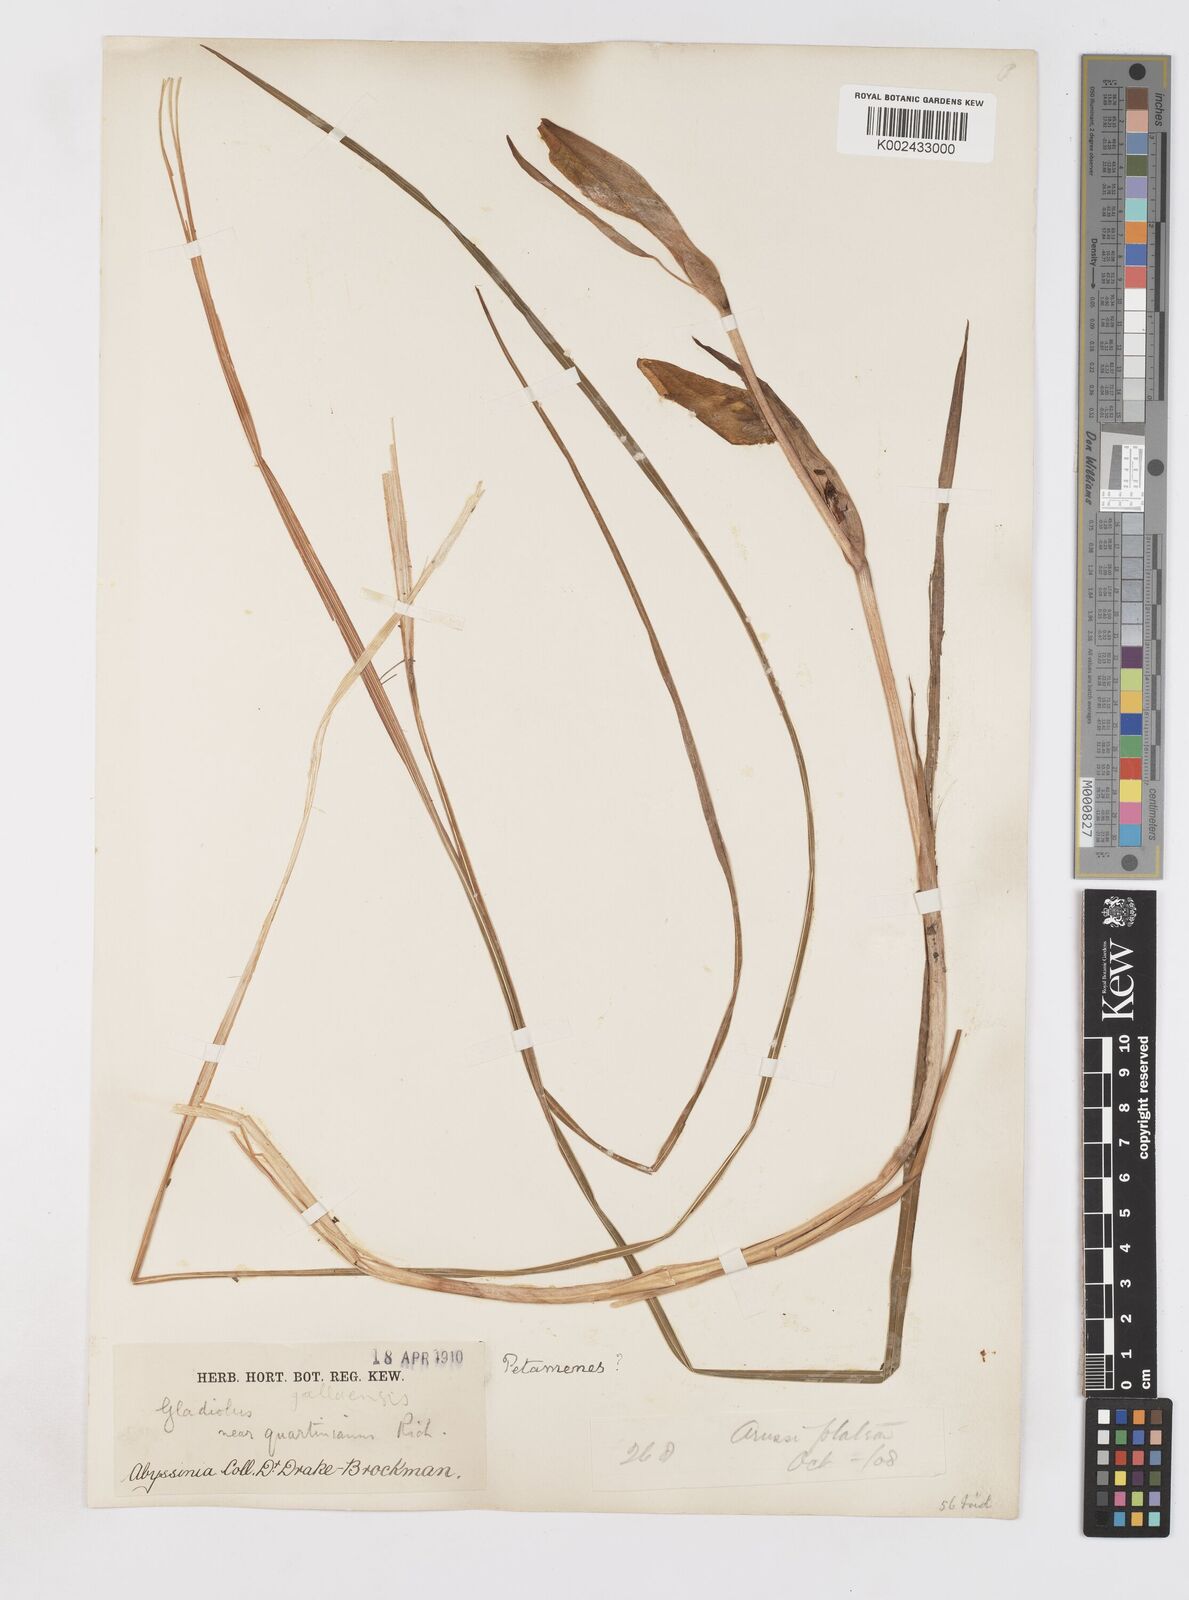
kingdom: Plantae
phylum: Tracheophyta
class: Liliopsida
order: Asparagales
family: Iridaceae
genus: Gladiolus
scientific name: Gladiolus dalenii
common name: Cornflag
